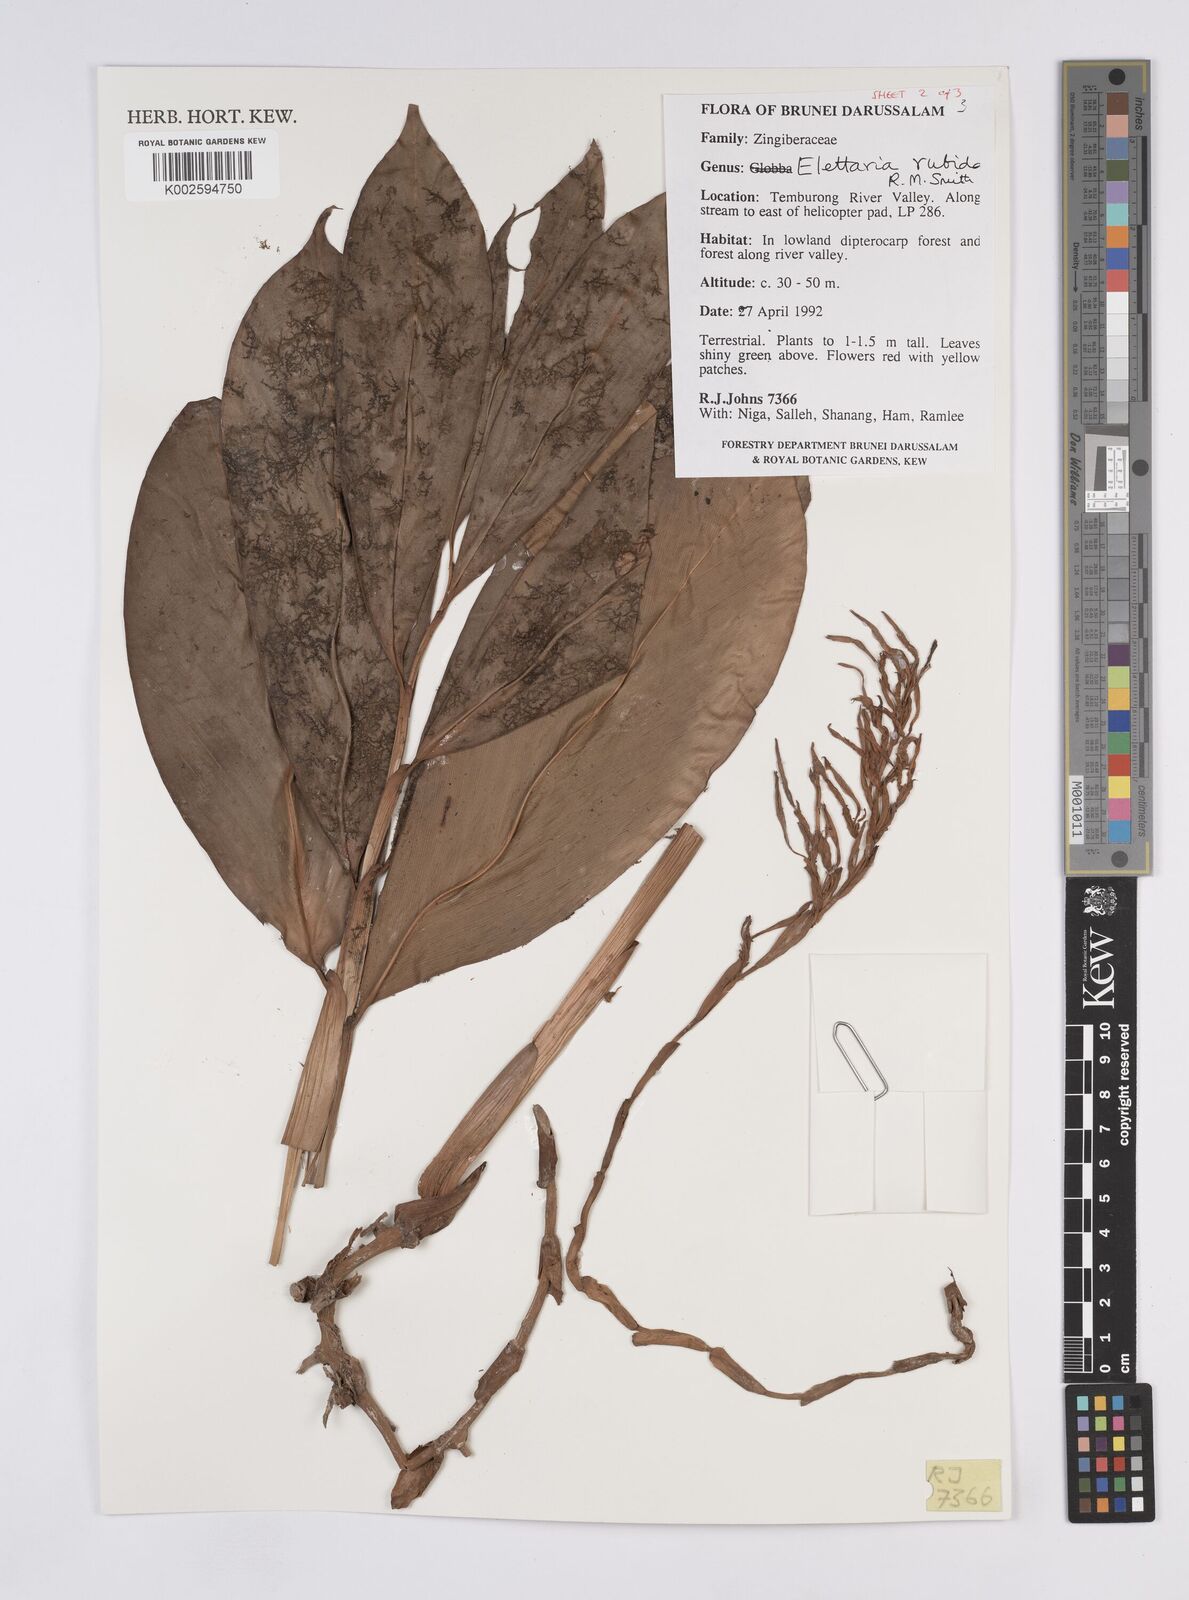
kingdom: Plantae
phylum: Tracheophyta
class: Liliopsida
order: Zingiberales
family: Zingiberaceae
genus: Sulettaria
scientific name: Sulettaria rubida
